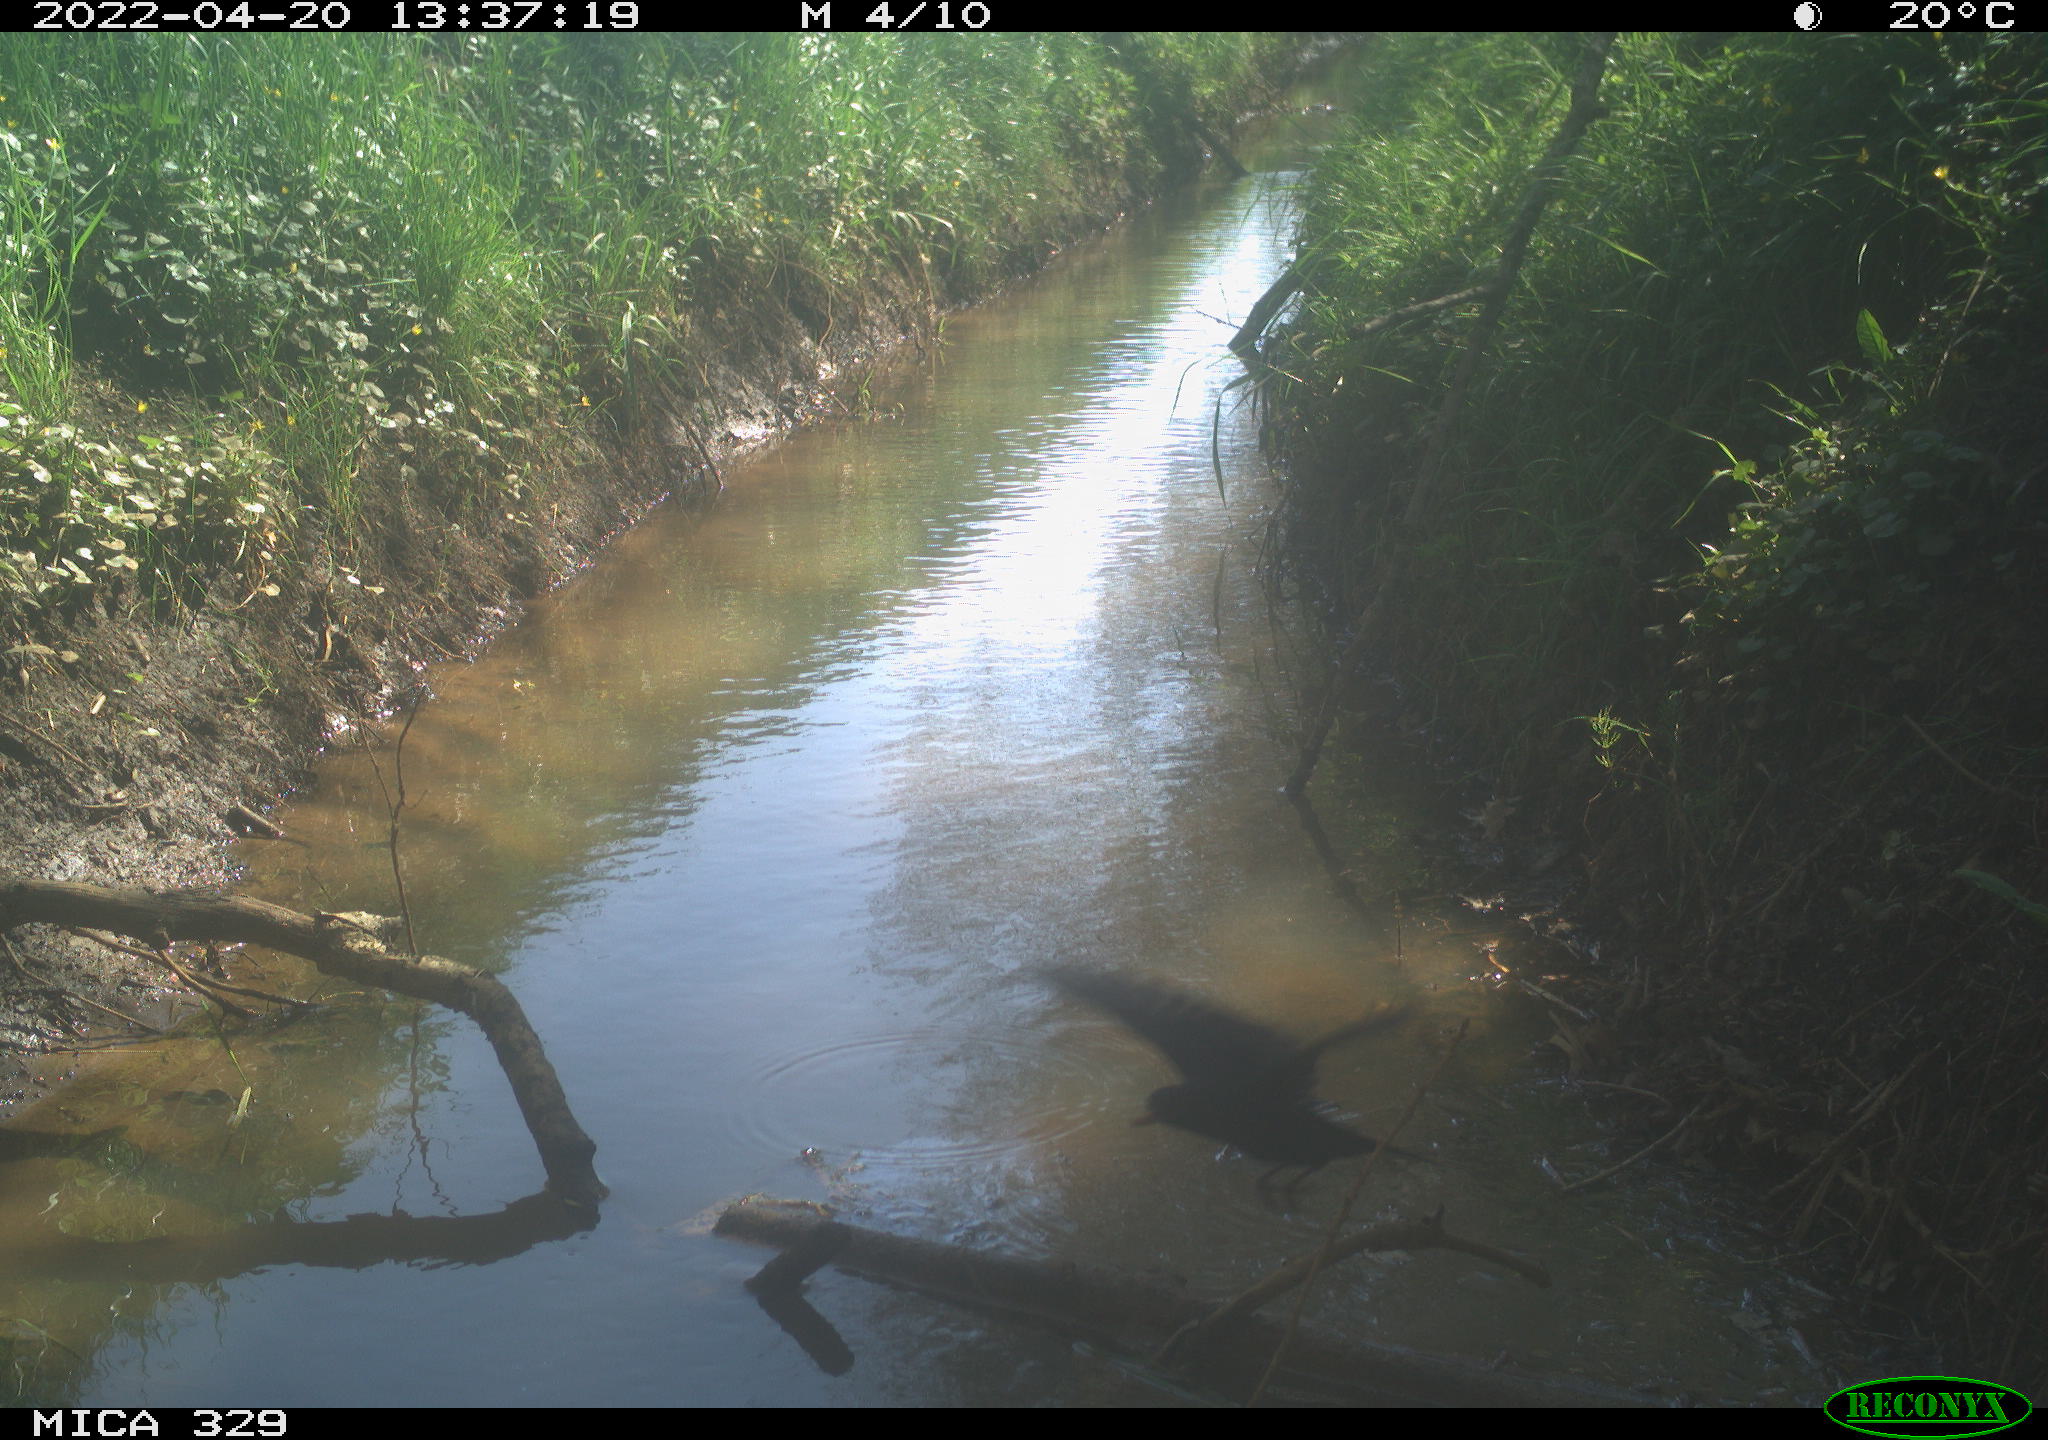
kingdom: Animalia
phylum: Chordata
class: Aves
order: Passeriformes
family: Turdidae
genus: Turdus
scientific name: Turdus merula
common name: Common blackbird
